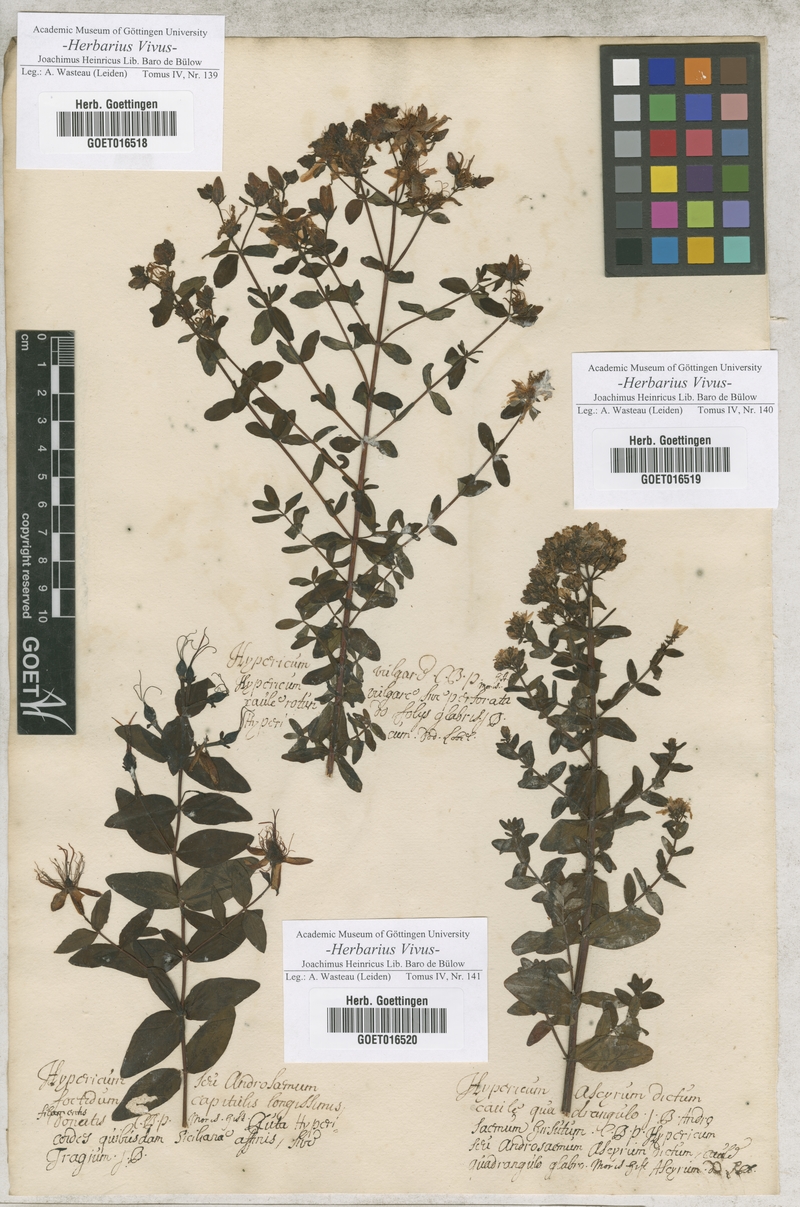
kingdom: Plantae
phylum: Tracheophyta
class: Magnoliopsida
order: Malpighiales
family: Hypericaceae
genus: Hypericum
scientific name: Hypericum perforatum
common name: Common st. johnswort
